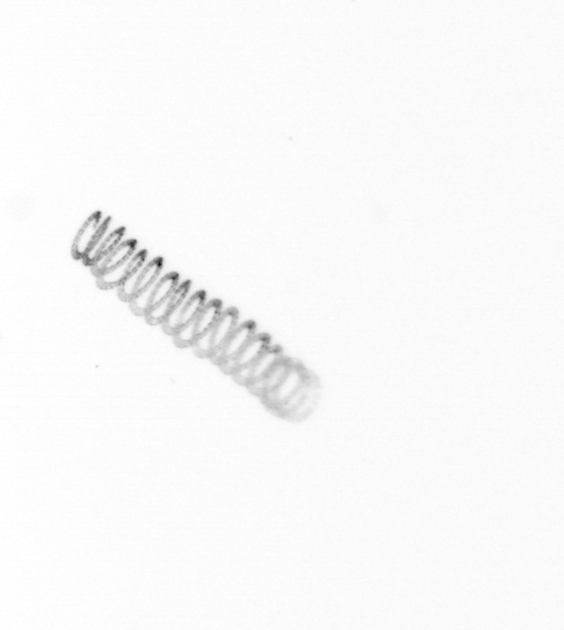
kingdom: Chromista
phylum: Ochrophyta
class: Bacillariophyceae
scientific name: Bacillariophyceae
